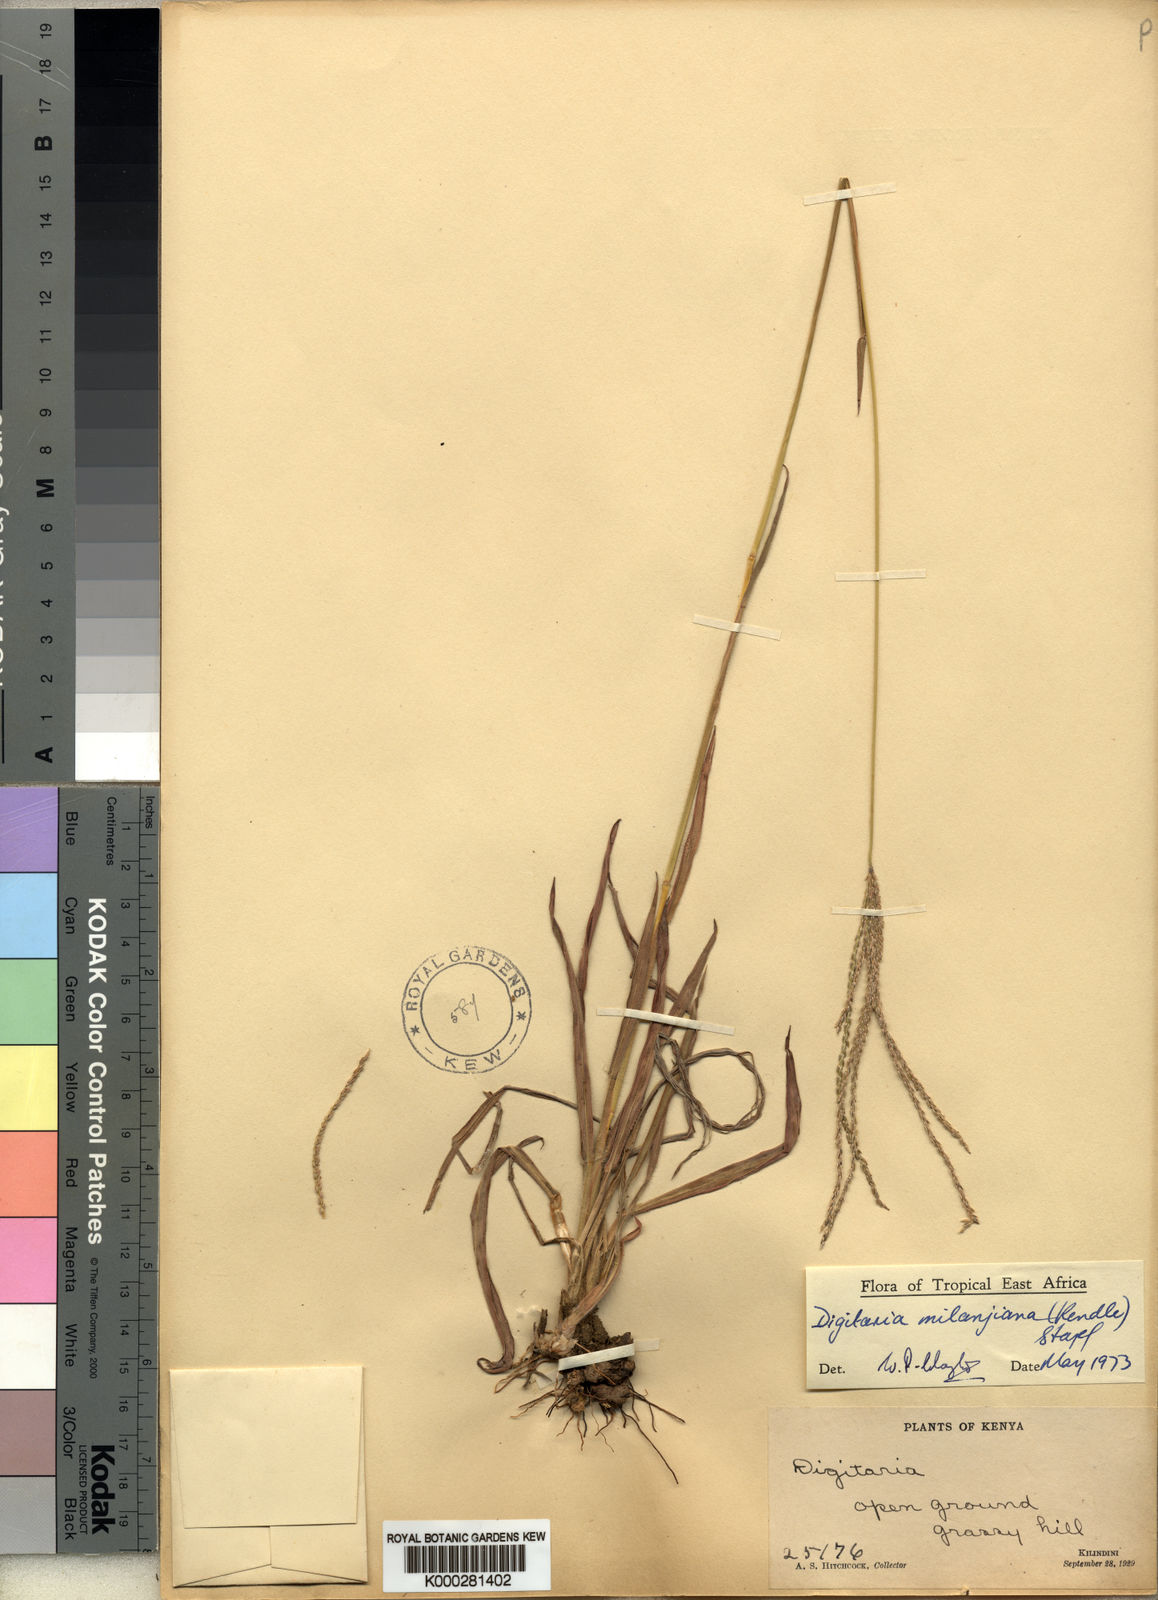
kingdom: Plantae
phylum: Tracheophyta
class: Liliopsida
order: Poales
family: Poaceae
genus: Digitaria
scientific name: Digitaria milanjiana
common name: Madagascar crabgrass
